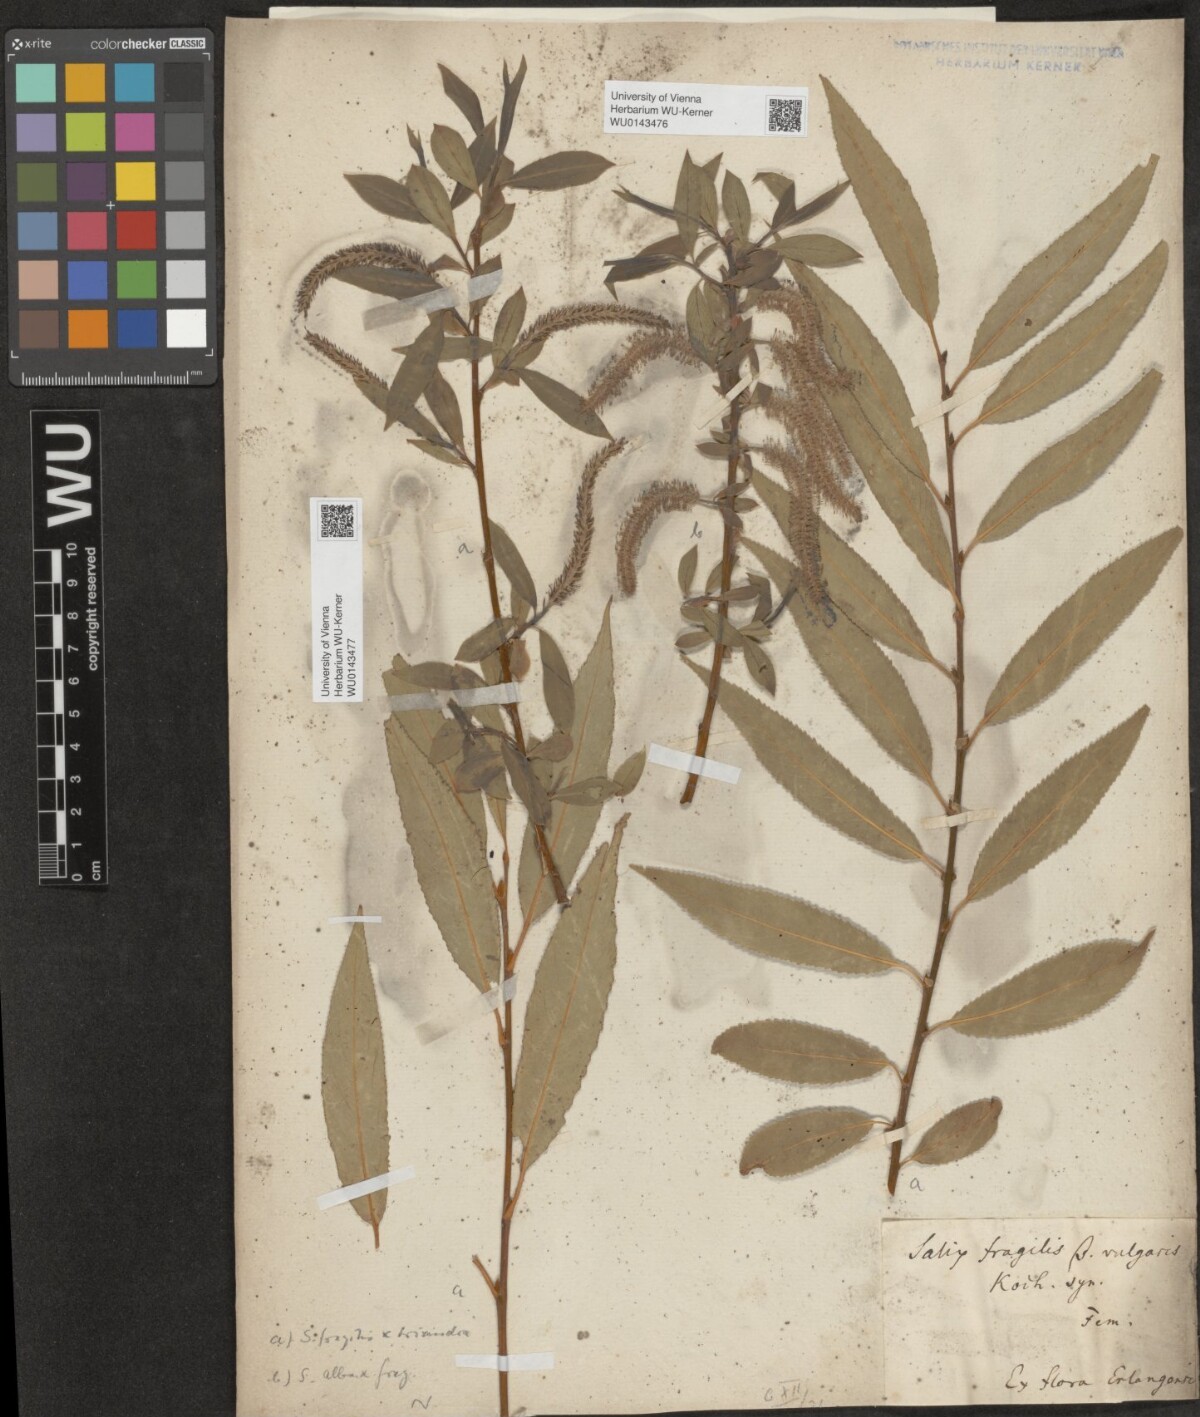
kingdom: Plantae
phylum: Tracheophyta
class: Magnoliopsida
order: Malpighiales
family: Salicaceae
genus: Salix
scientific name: Salix subtriandra
